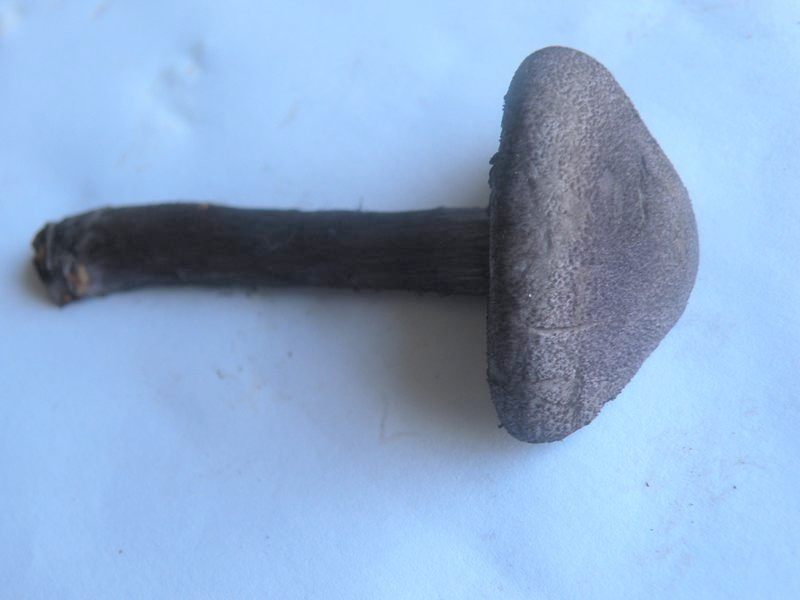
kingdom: Fungi
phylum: Basidiomycota
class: Agaricomycetes
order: Agaricales
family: Cortinariaceae
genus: Cortinarius
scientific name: Cortinarius violaceus
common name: mørkviolet slørhat
